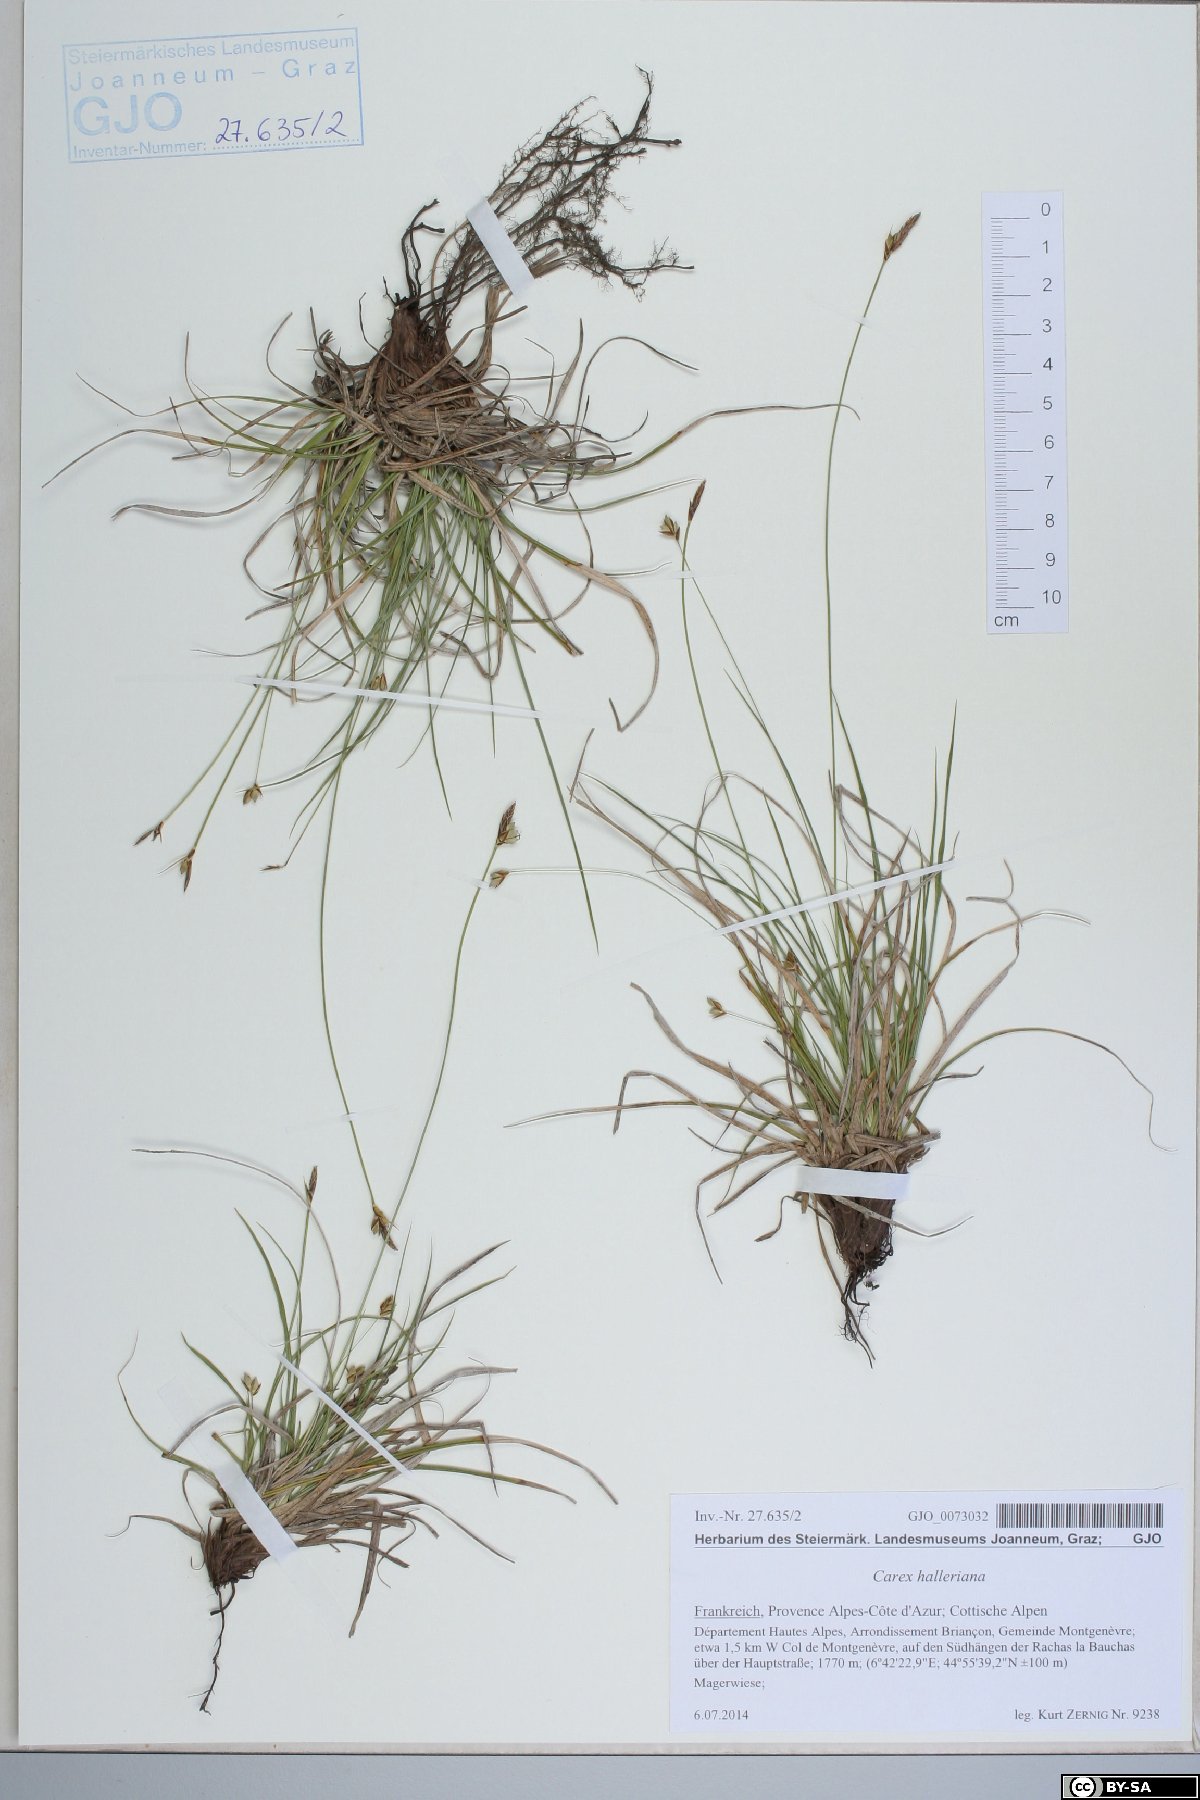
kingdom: Plantae
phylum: Tracheophyta
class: Liliopsida
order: Poales
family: Cyperaceae
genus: Carex
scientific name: Carex halleriana
